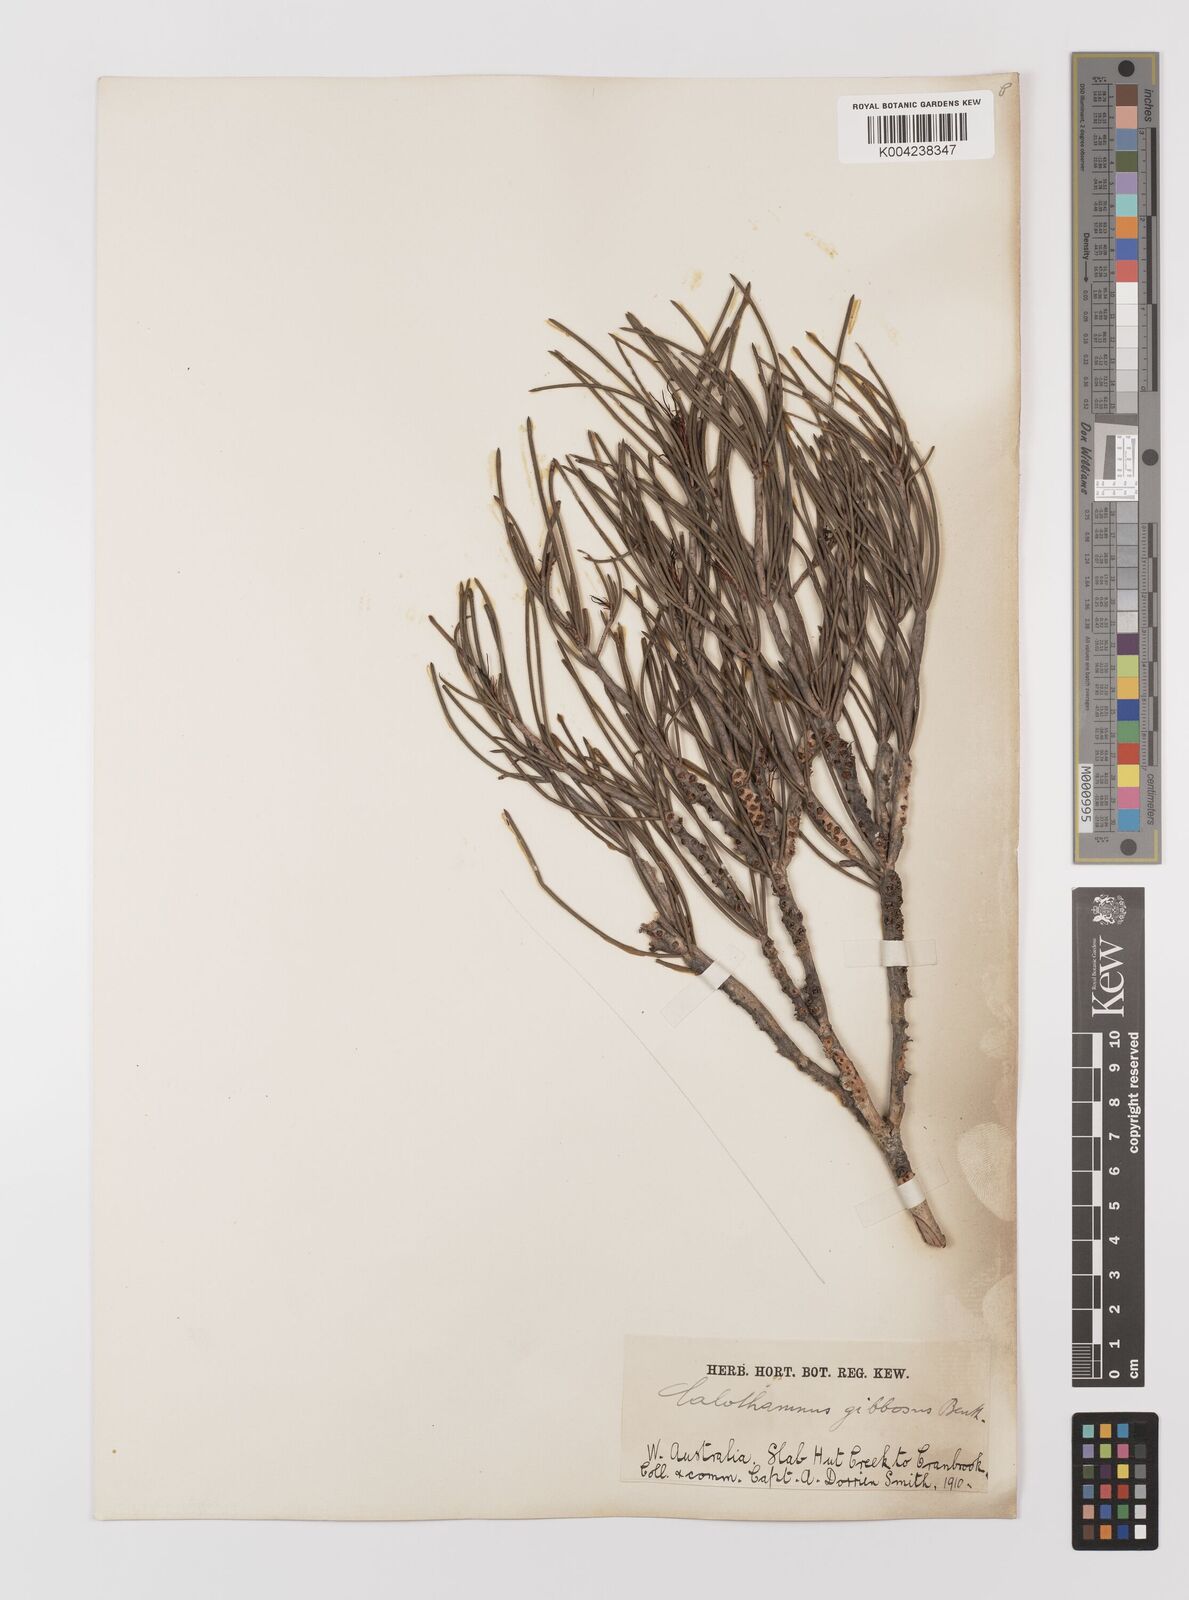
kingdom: Plantae
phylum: Tracheophyta
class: Magnoliopsida
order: Myrtales
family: Myrtaceae
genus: Melaleuca
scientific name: Melaleuca protumida
